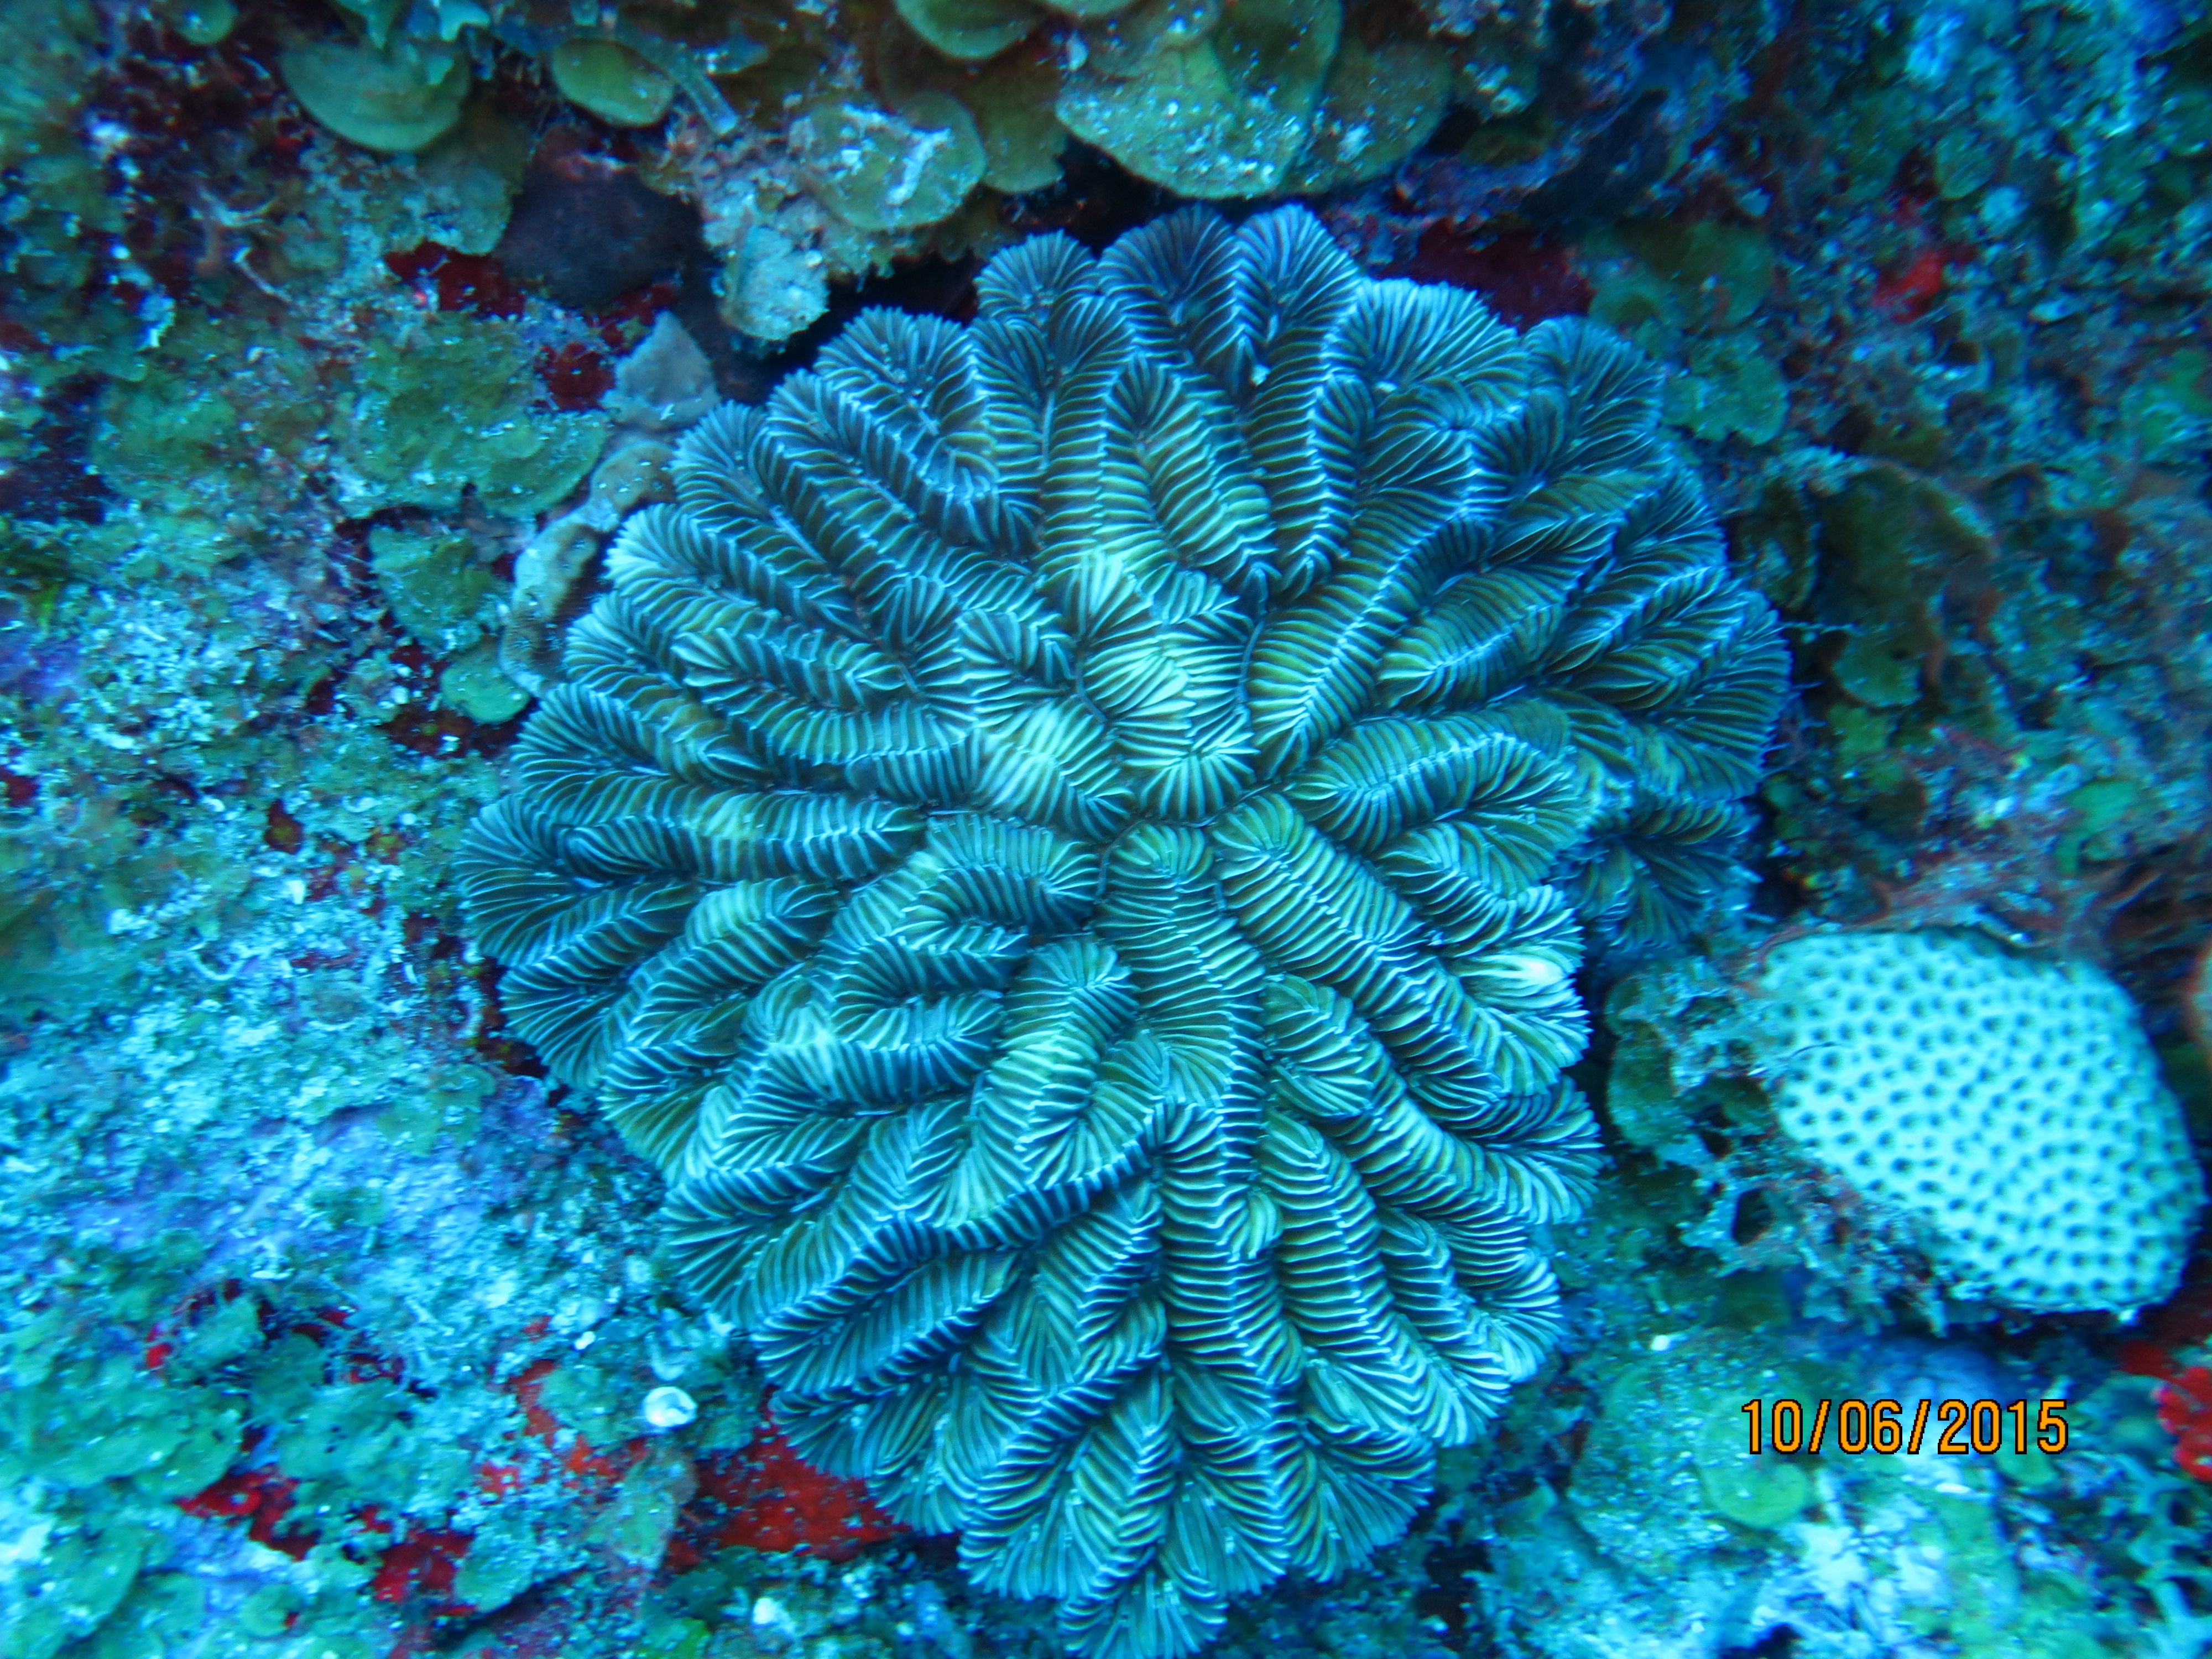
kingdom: Animalia
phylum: Cnidaria
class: Anthozoa
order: Scleractinia
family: Meandrinidae
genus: Meandrina
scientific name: Meandrina meandrites
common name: Maze coral
